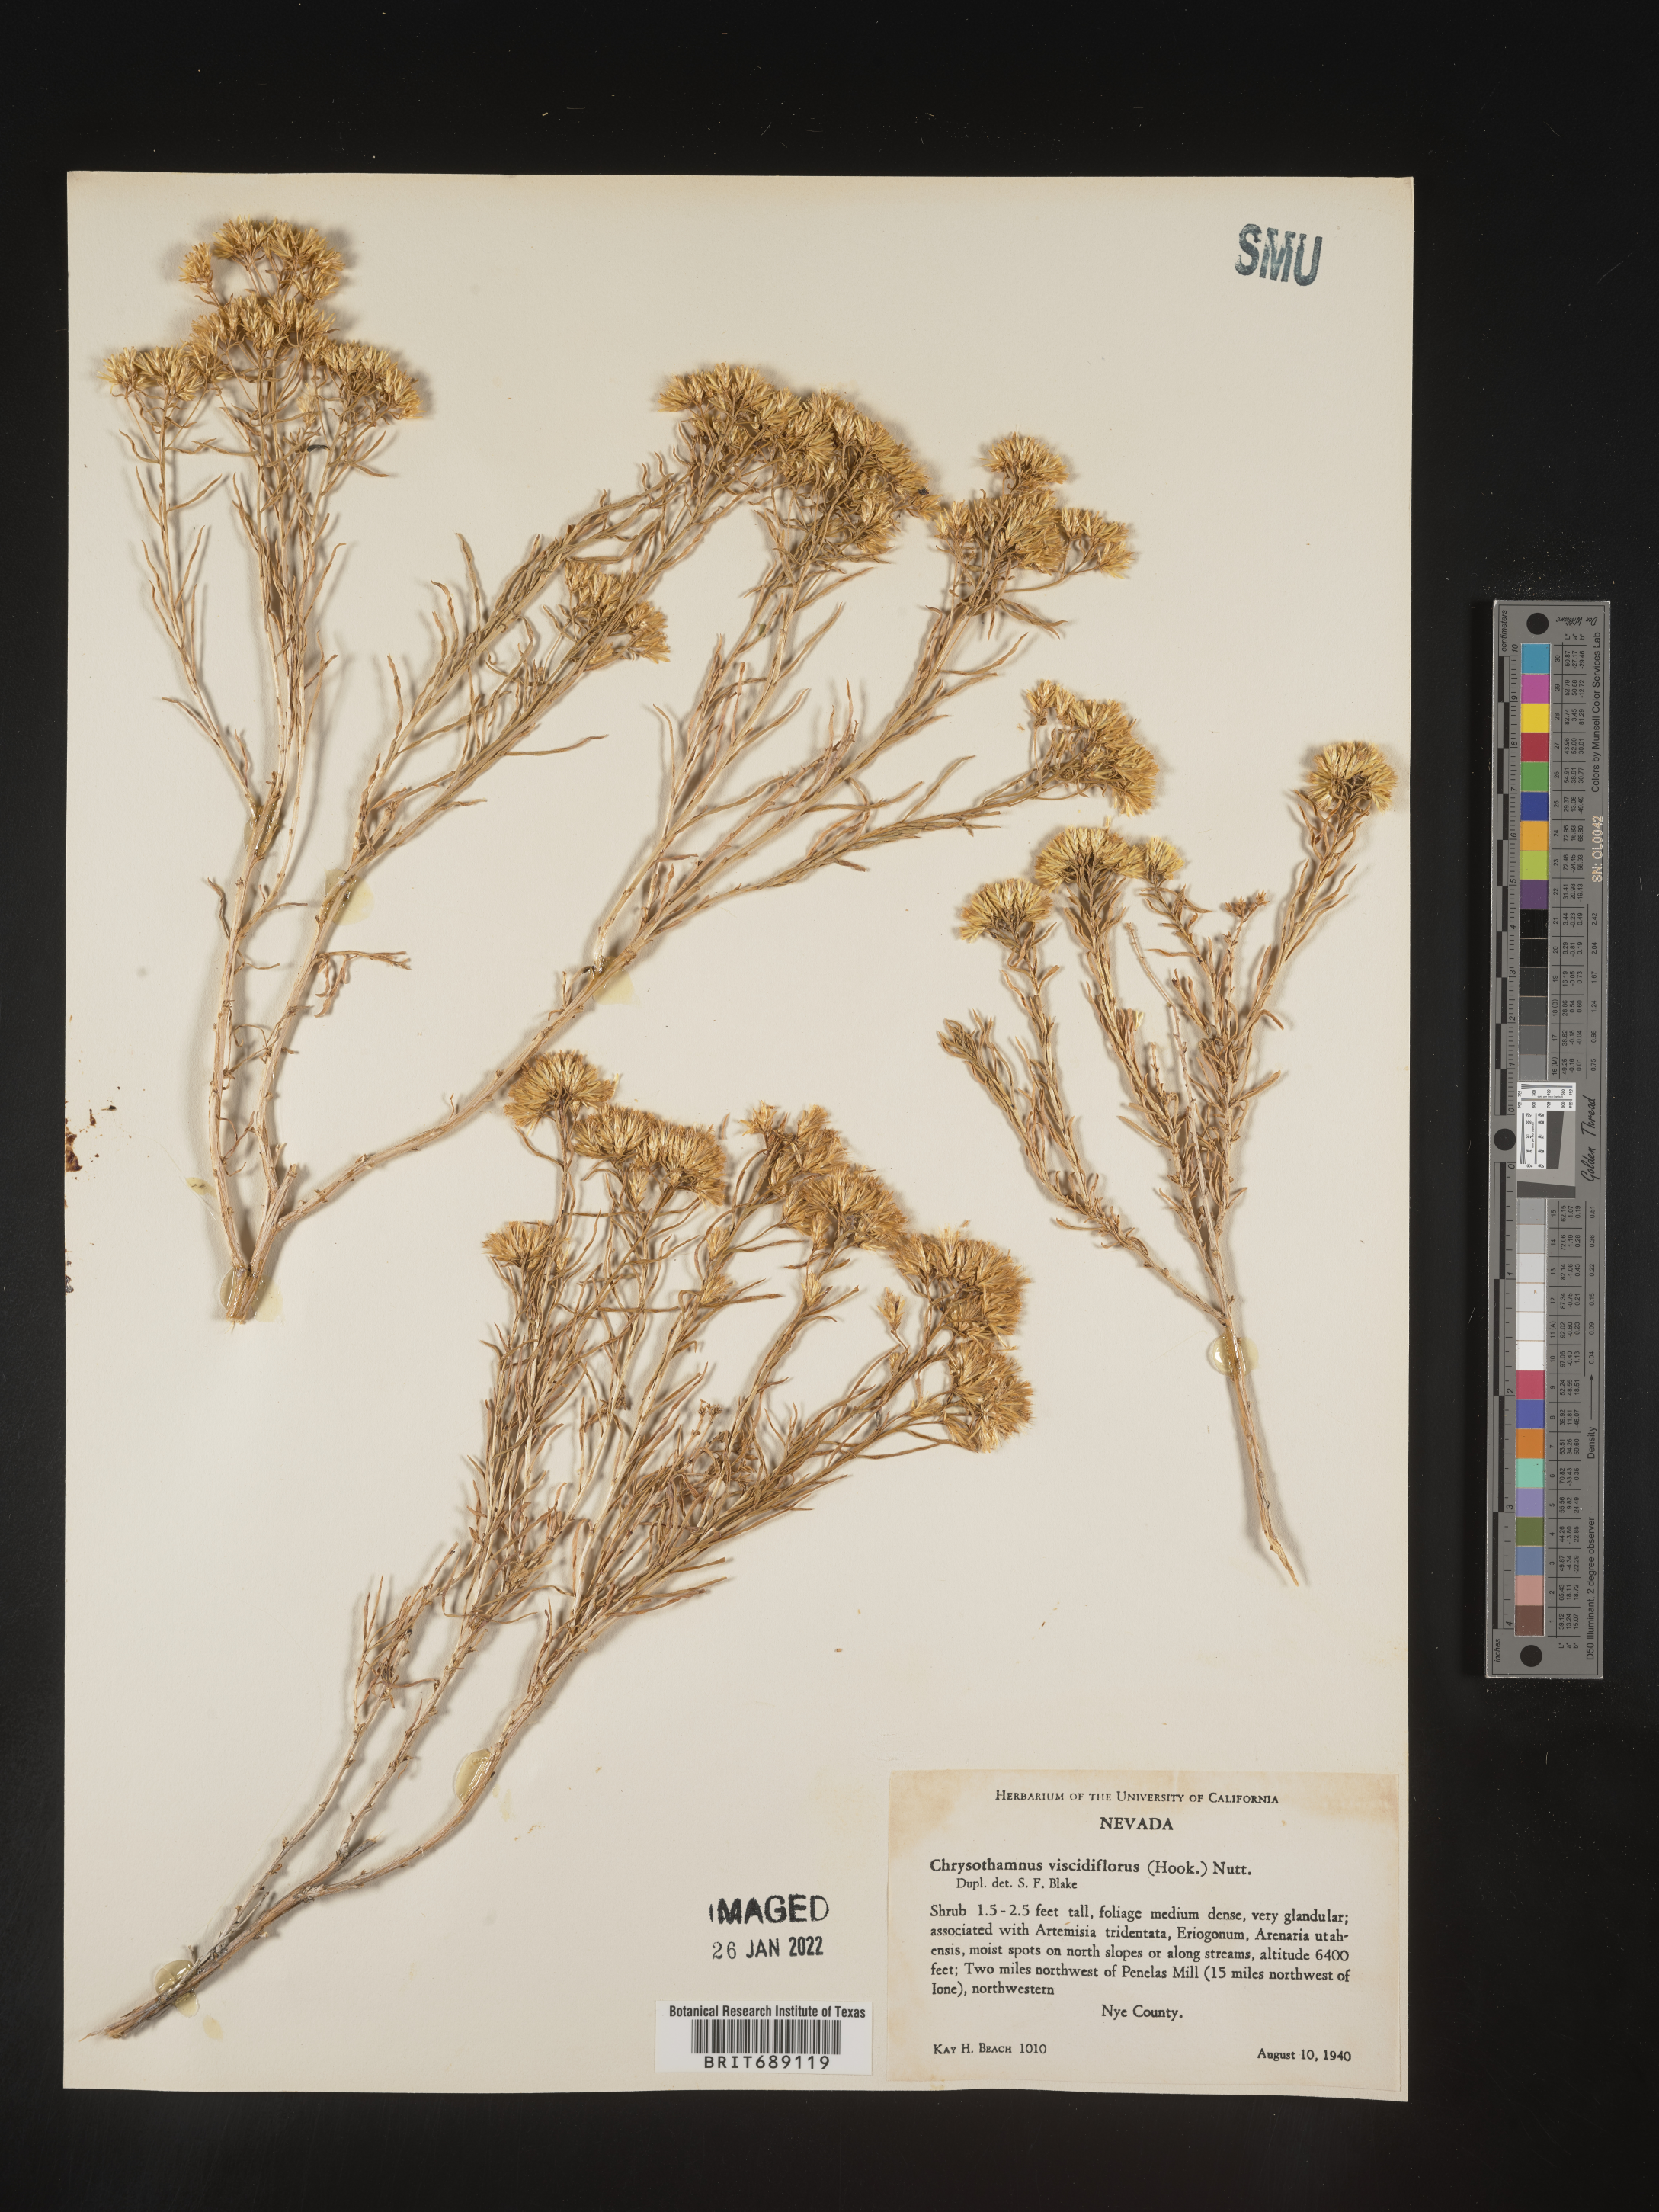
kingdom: Plantae
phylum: Tracheophyta
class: Magnoliopsida
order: Asterales
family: Asteraceae
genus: Chrysothamnus
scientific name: Chrysothamnus viscidiflorus
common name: Yellow rabbitbrush
